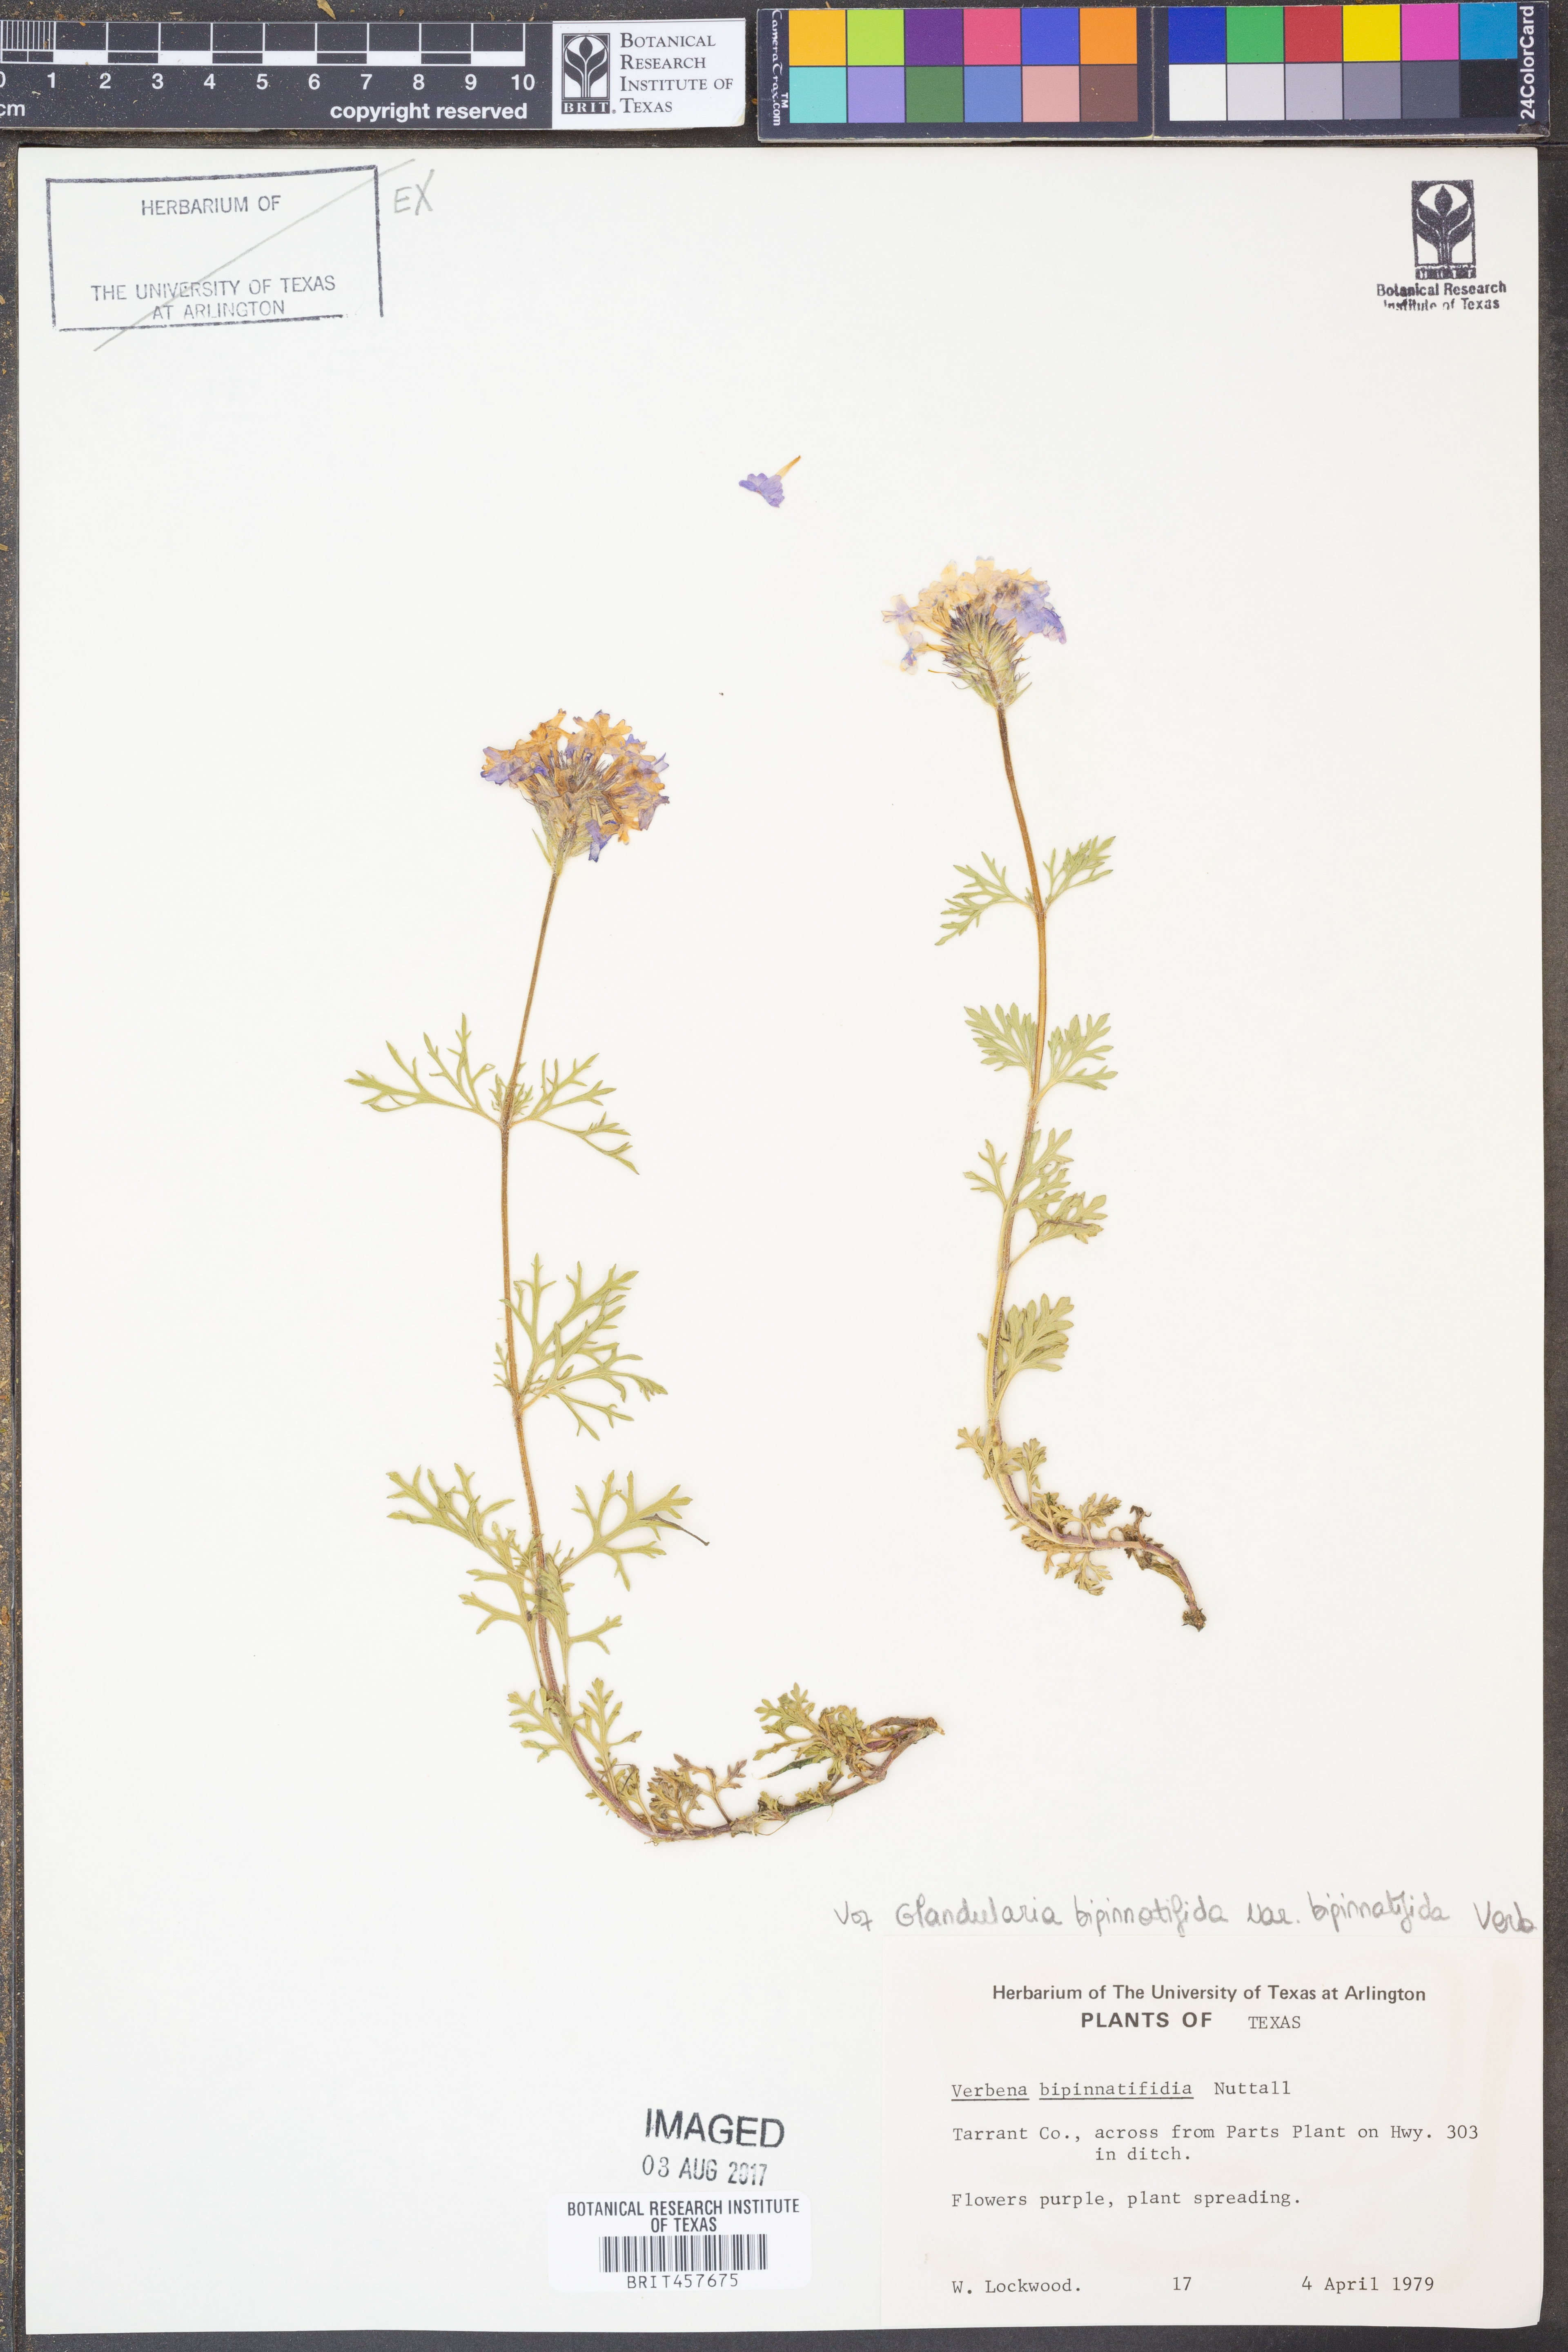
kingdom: Plantae
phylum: Tracheophyta
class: Magnoliopsida
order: Lamiales
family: Verbenaceae
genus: Verbena
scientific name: Verbena bipinnatifida
